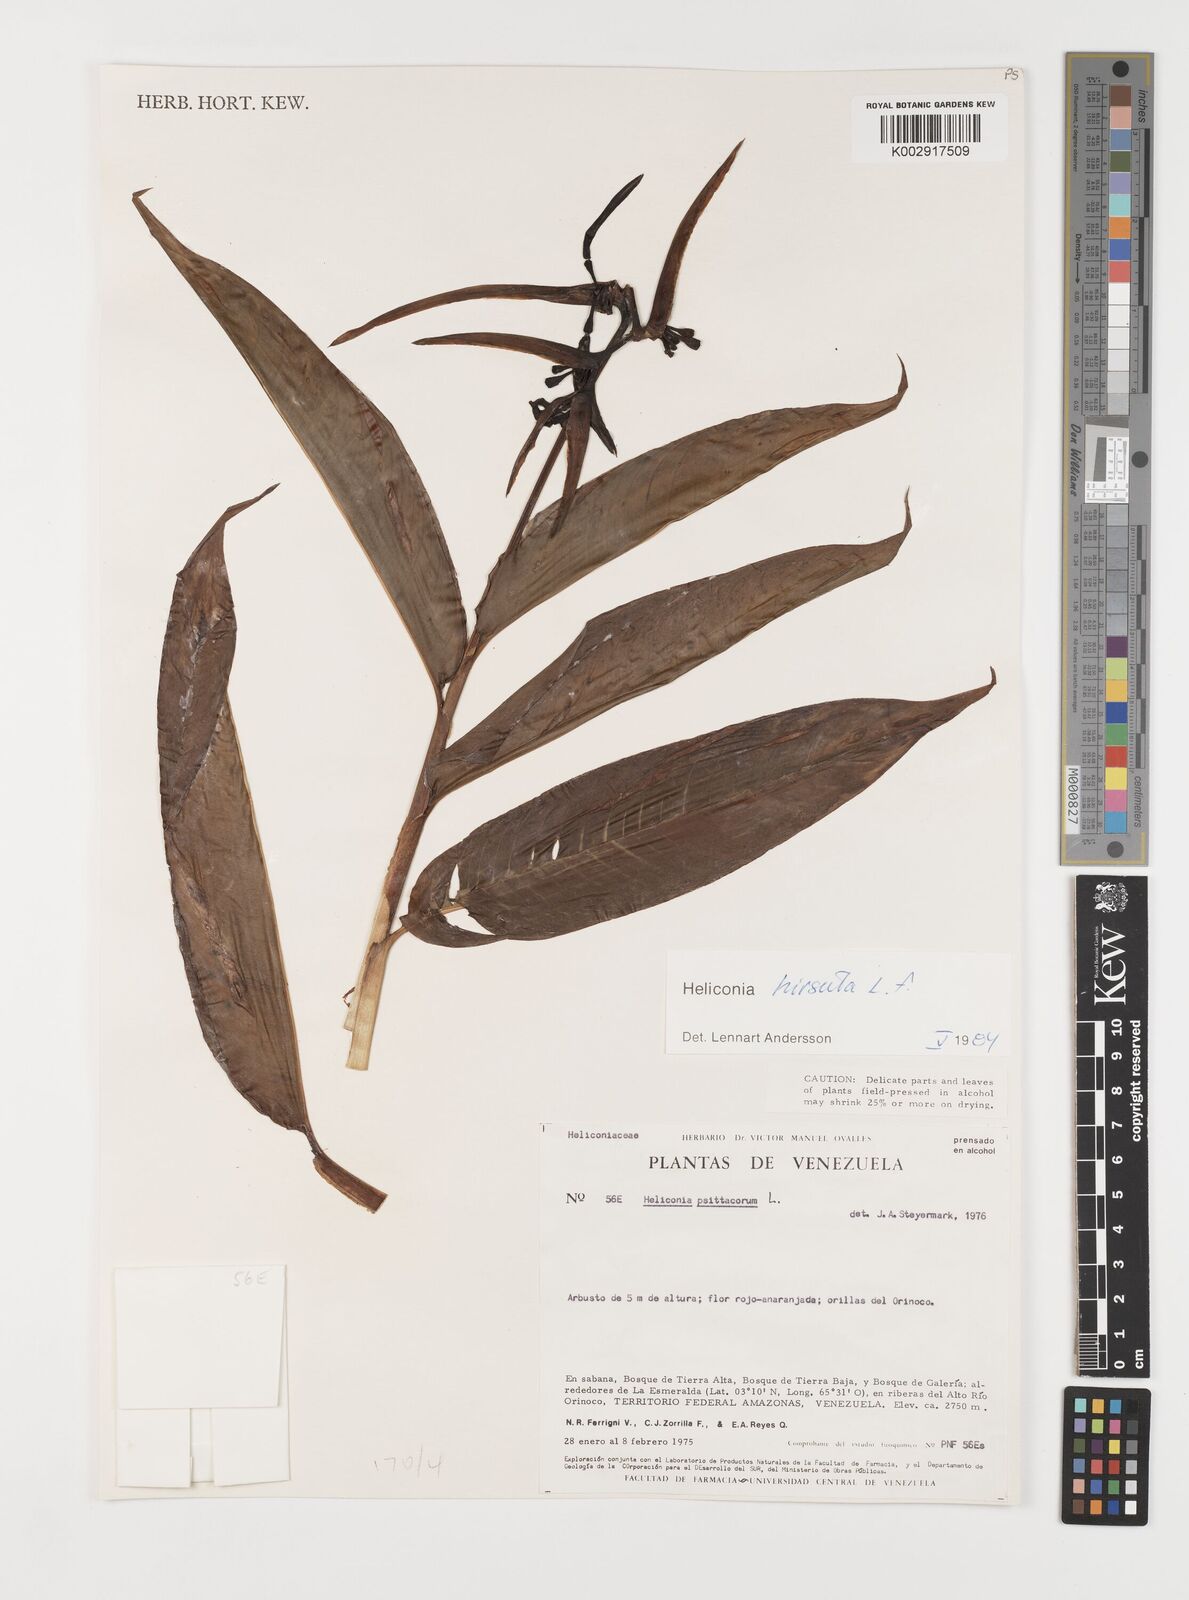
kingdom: Plantae
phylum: Tracheophyta
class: Liliopsida
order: Zingiberales
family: Heliconiaceae
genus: Heliconia
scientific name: Heliconia hirsuta
